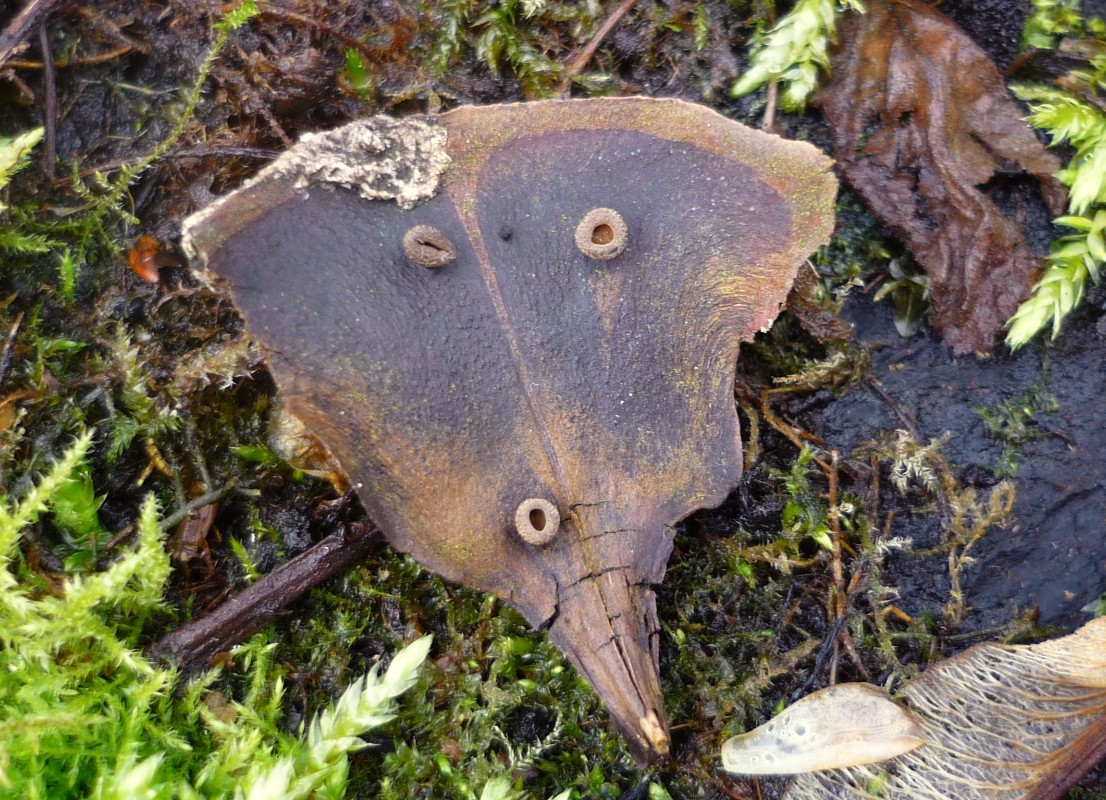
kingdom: Fungi
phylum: Ascomycota
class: Leotiomycetes
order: Helotiales
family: Sclerotiniaceae
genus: Ciboria
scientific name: Ciboria rufofusca
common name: kogleskæl-knoldskive
